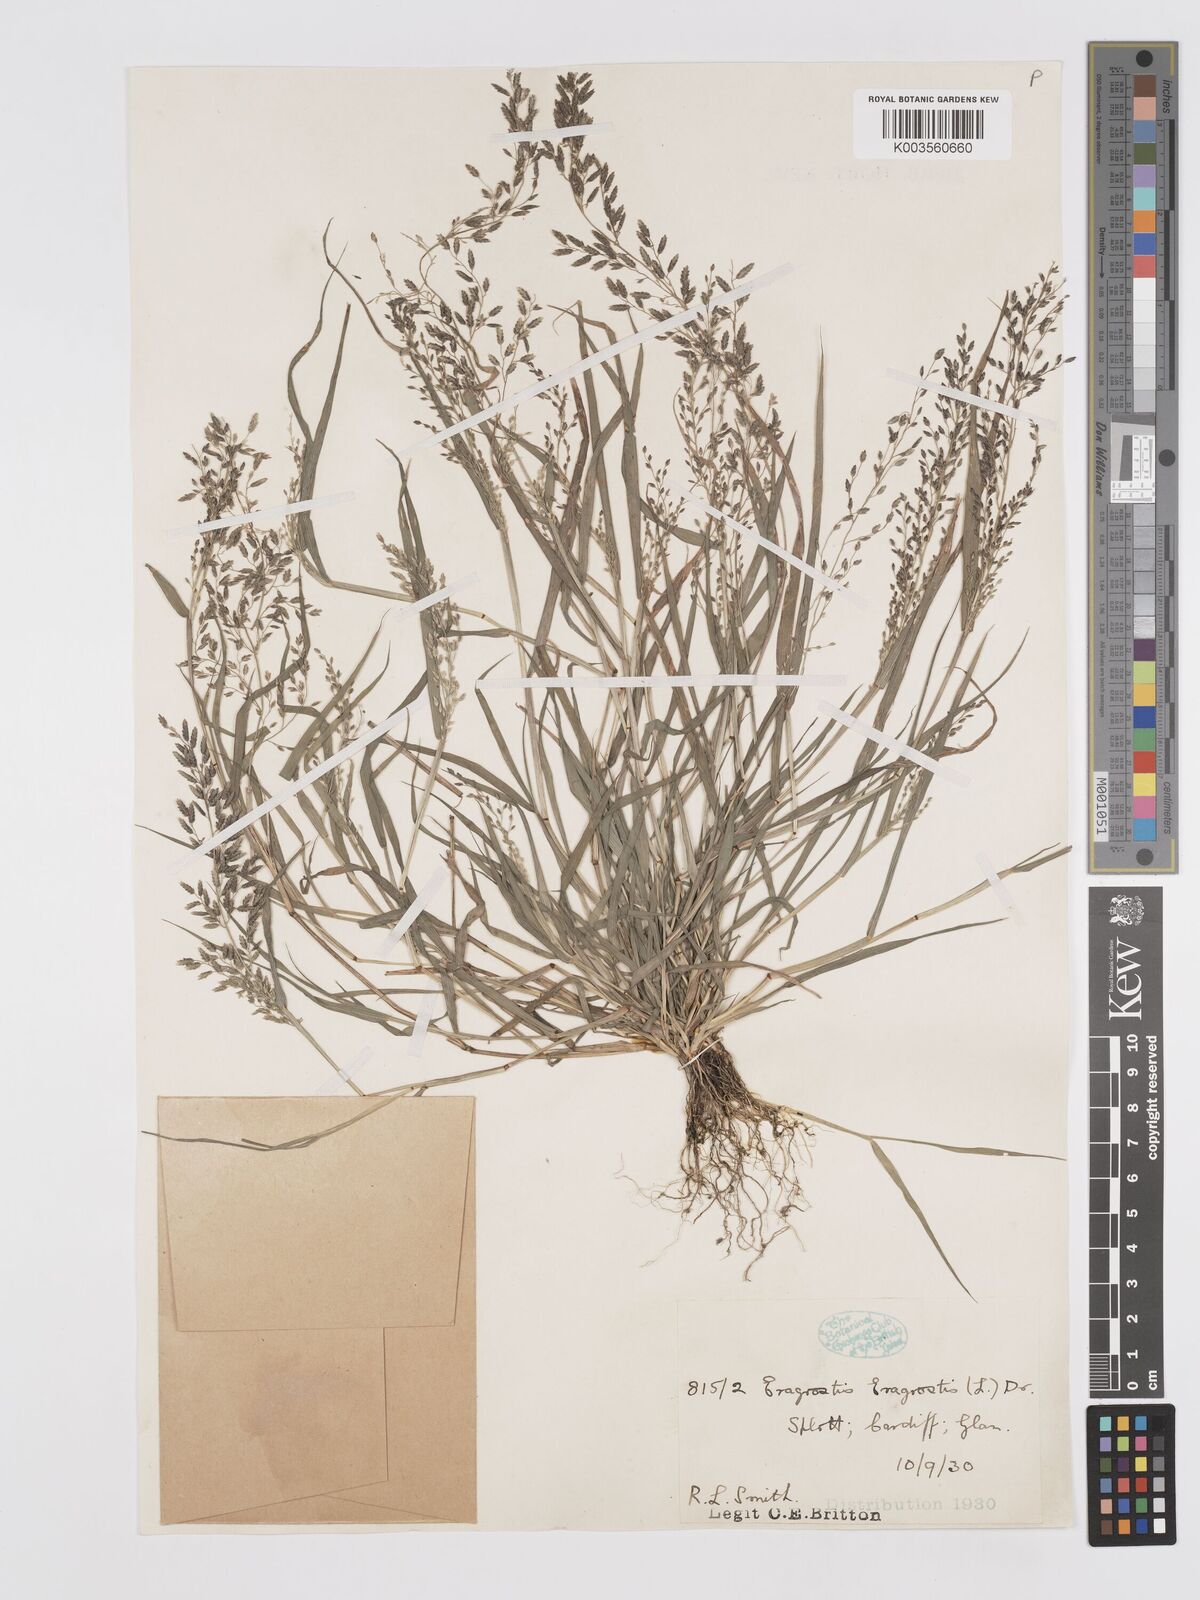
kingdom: Plantae
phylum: Tracheophyta
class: Liliopsida
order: Poales
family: Poaceae
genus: Eragrostis
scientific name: Eragrostis minor
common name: Small love-grass
